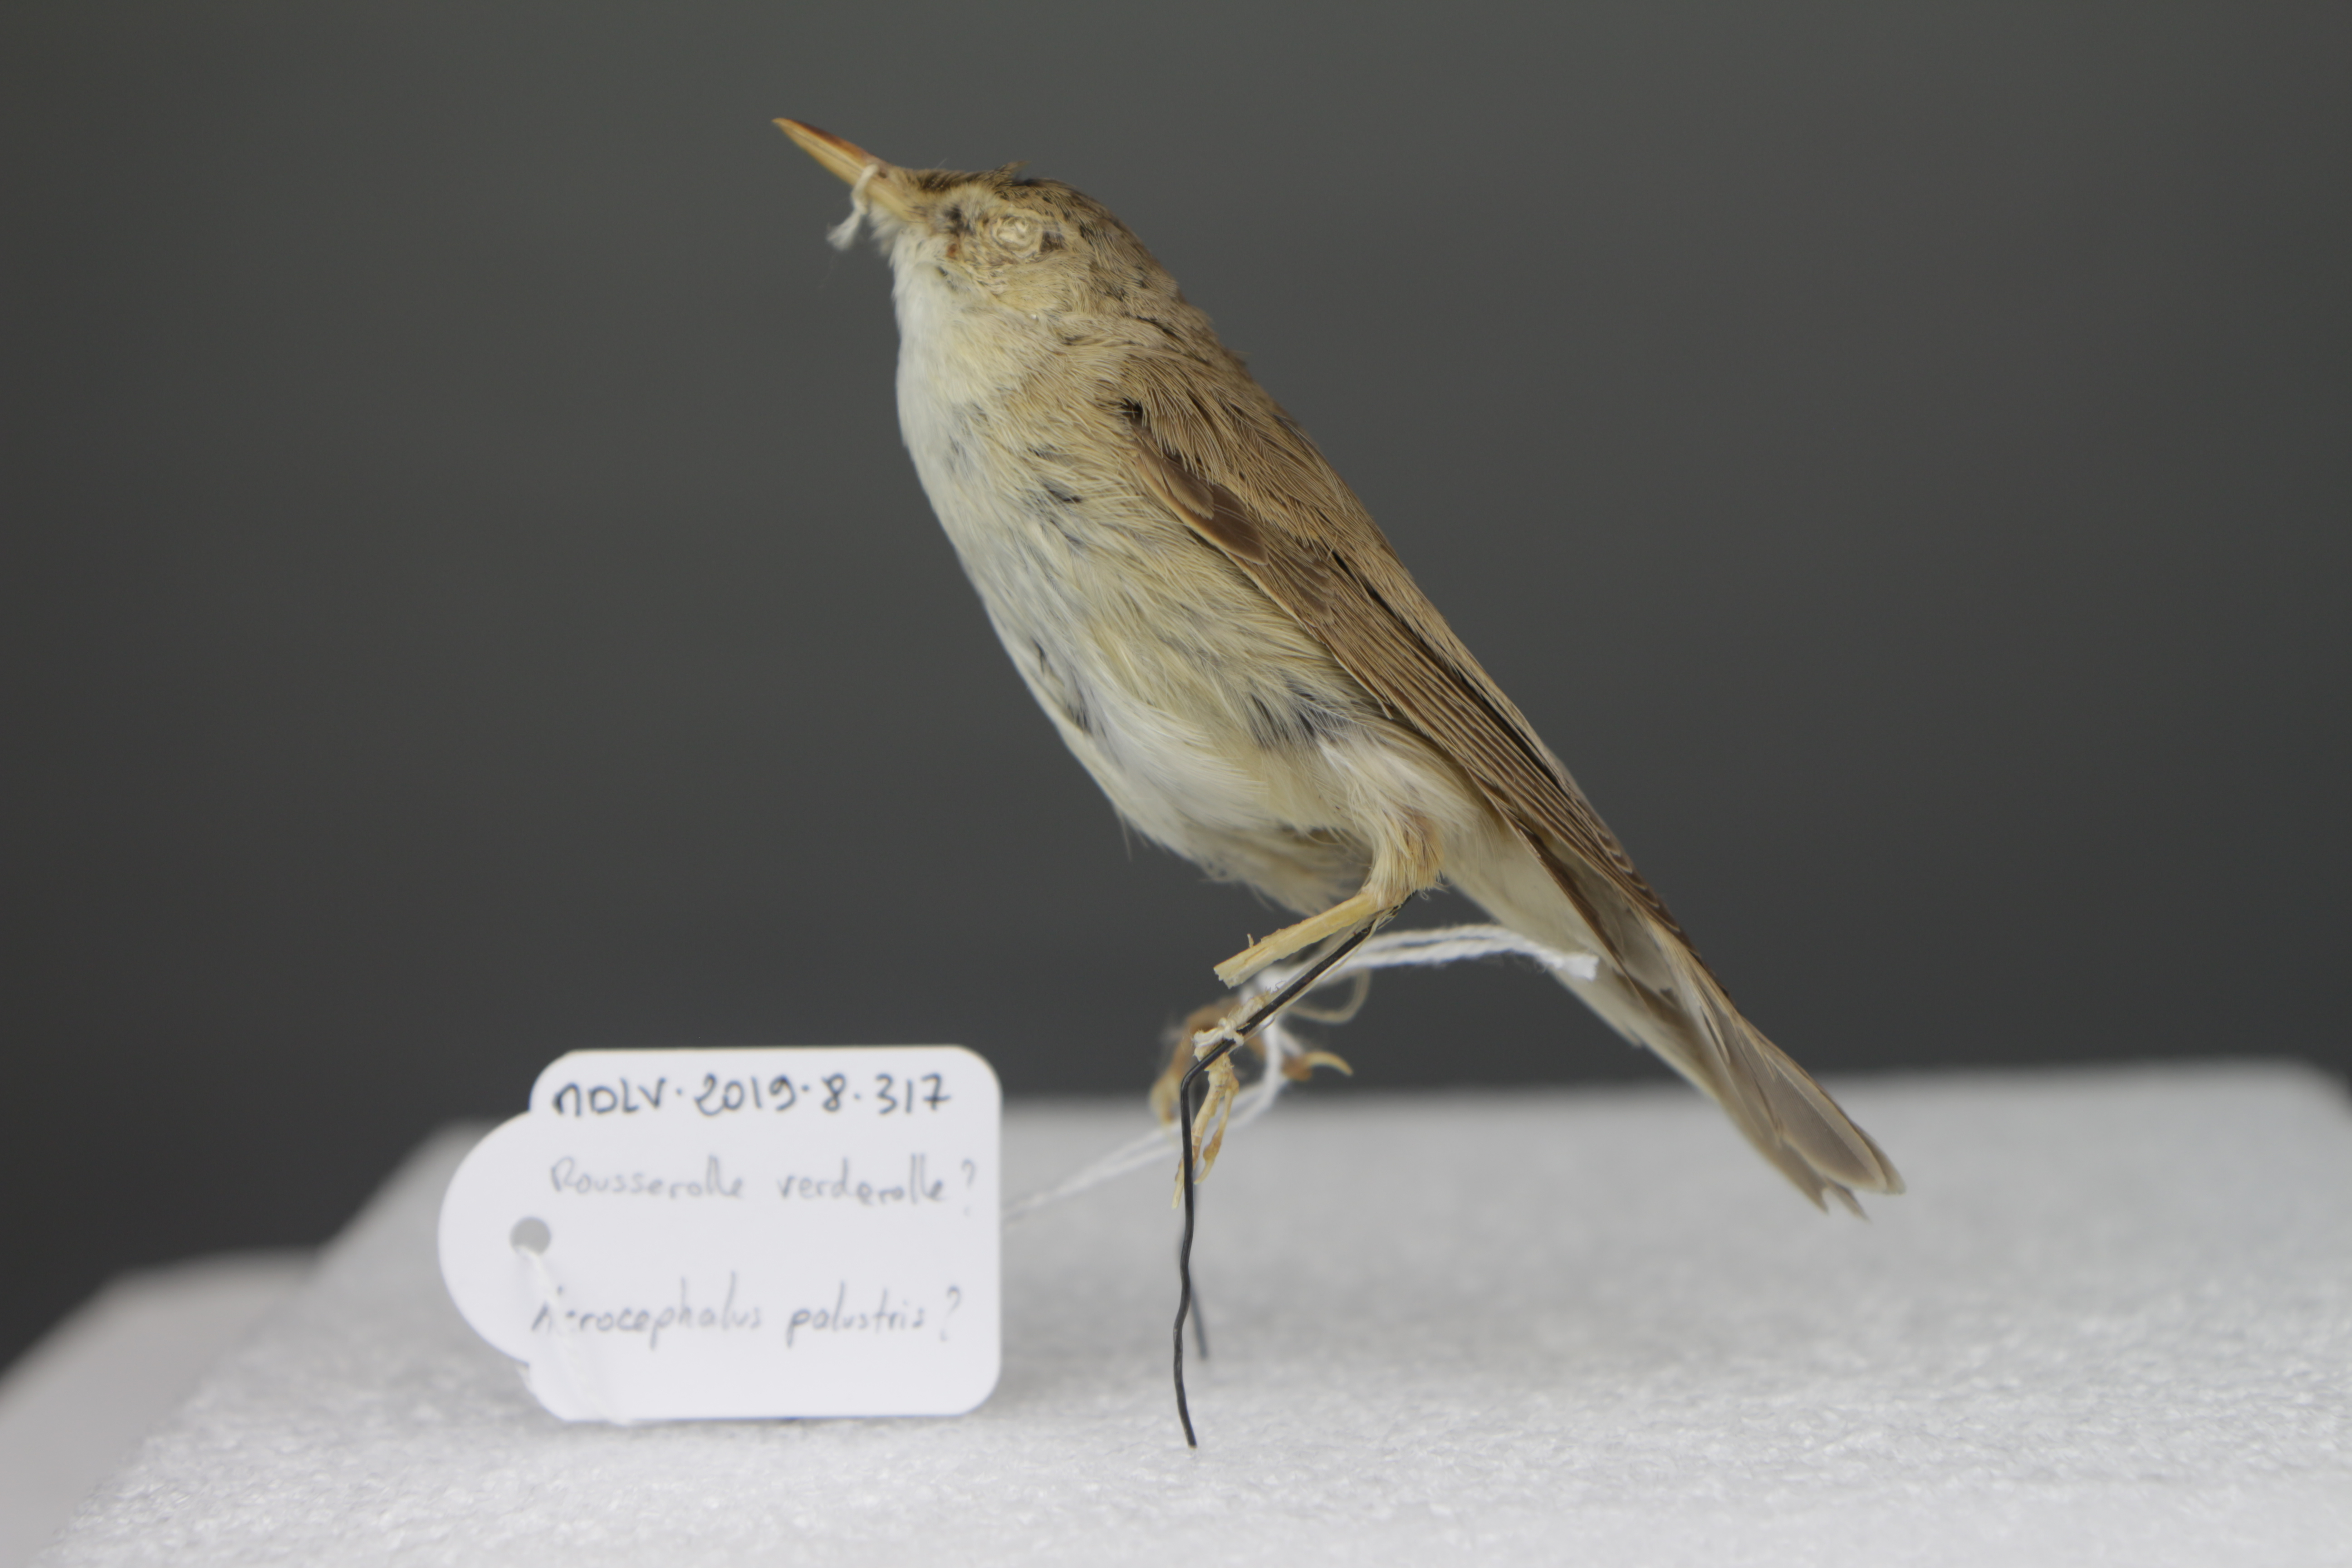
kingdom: Animalia
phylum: Chordata
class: Aves
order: Passeriformes
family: Acrocephalidae
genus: Acrocephalus
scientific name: Acrocephalus palustris
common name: Marsh warbler
